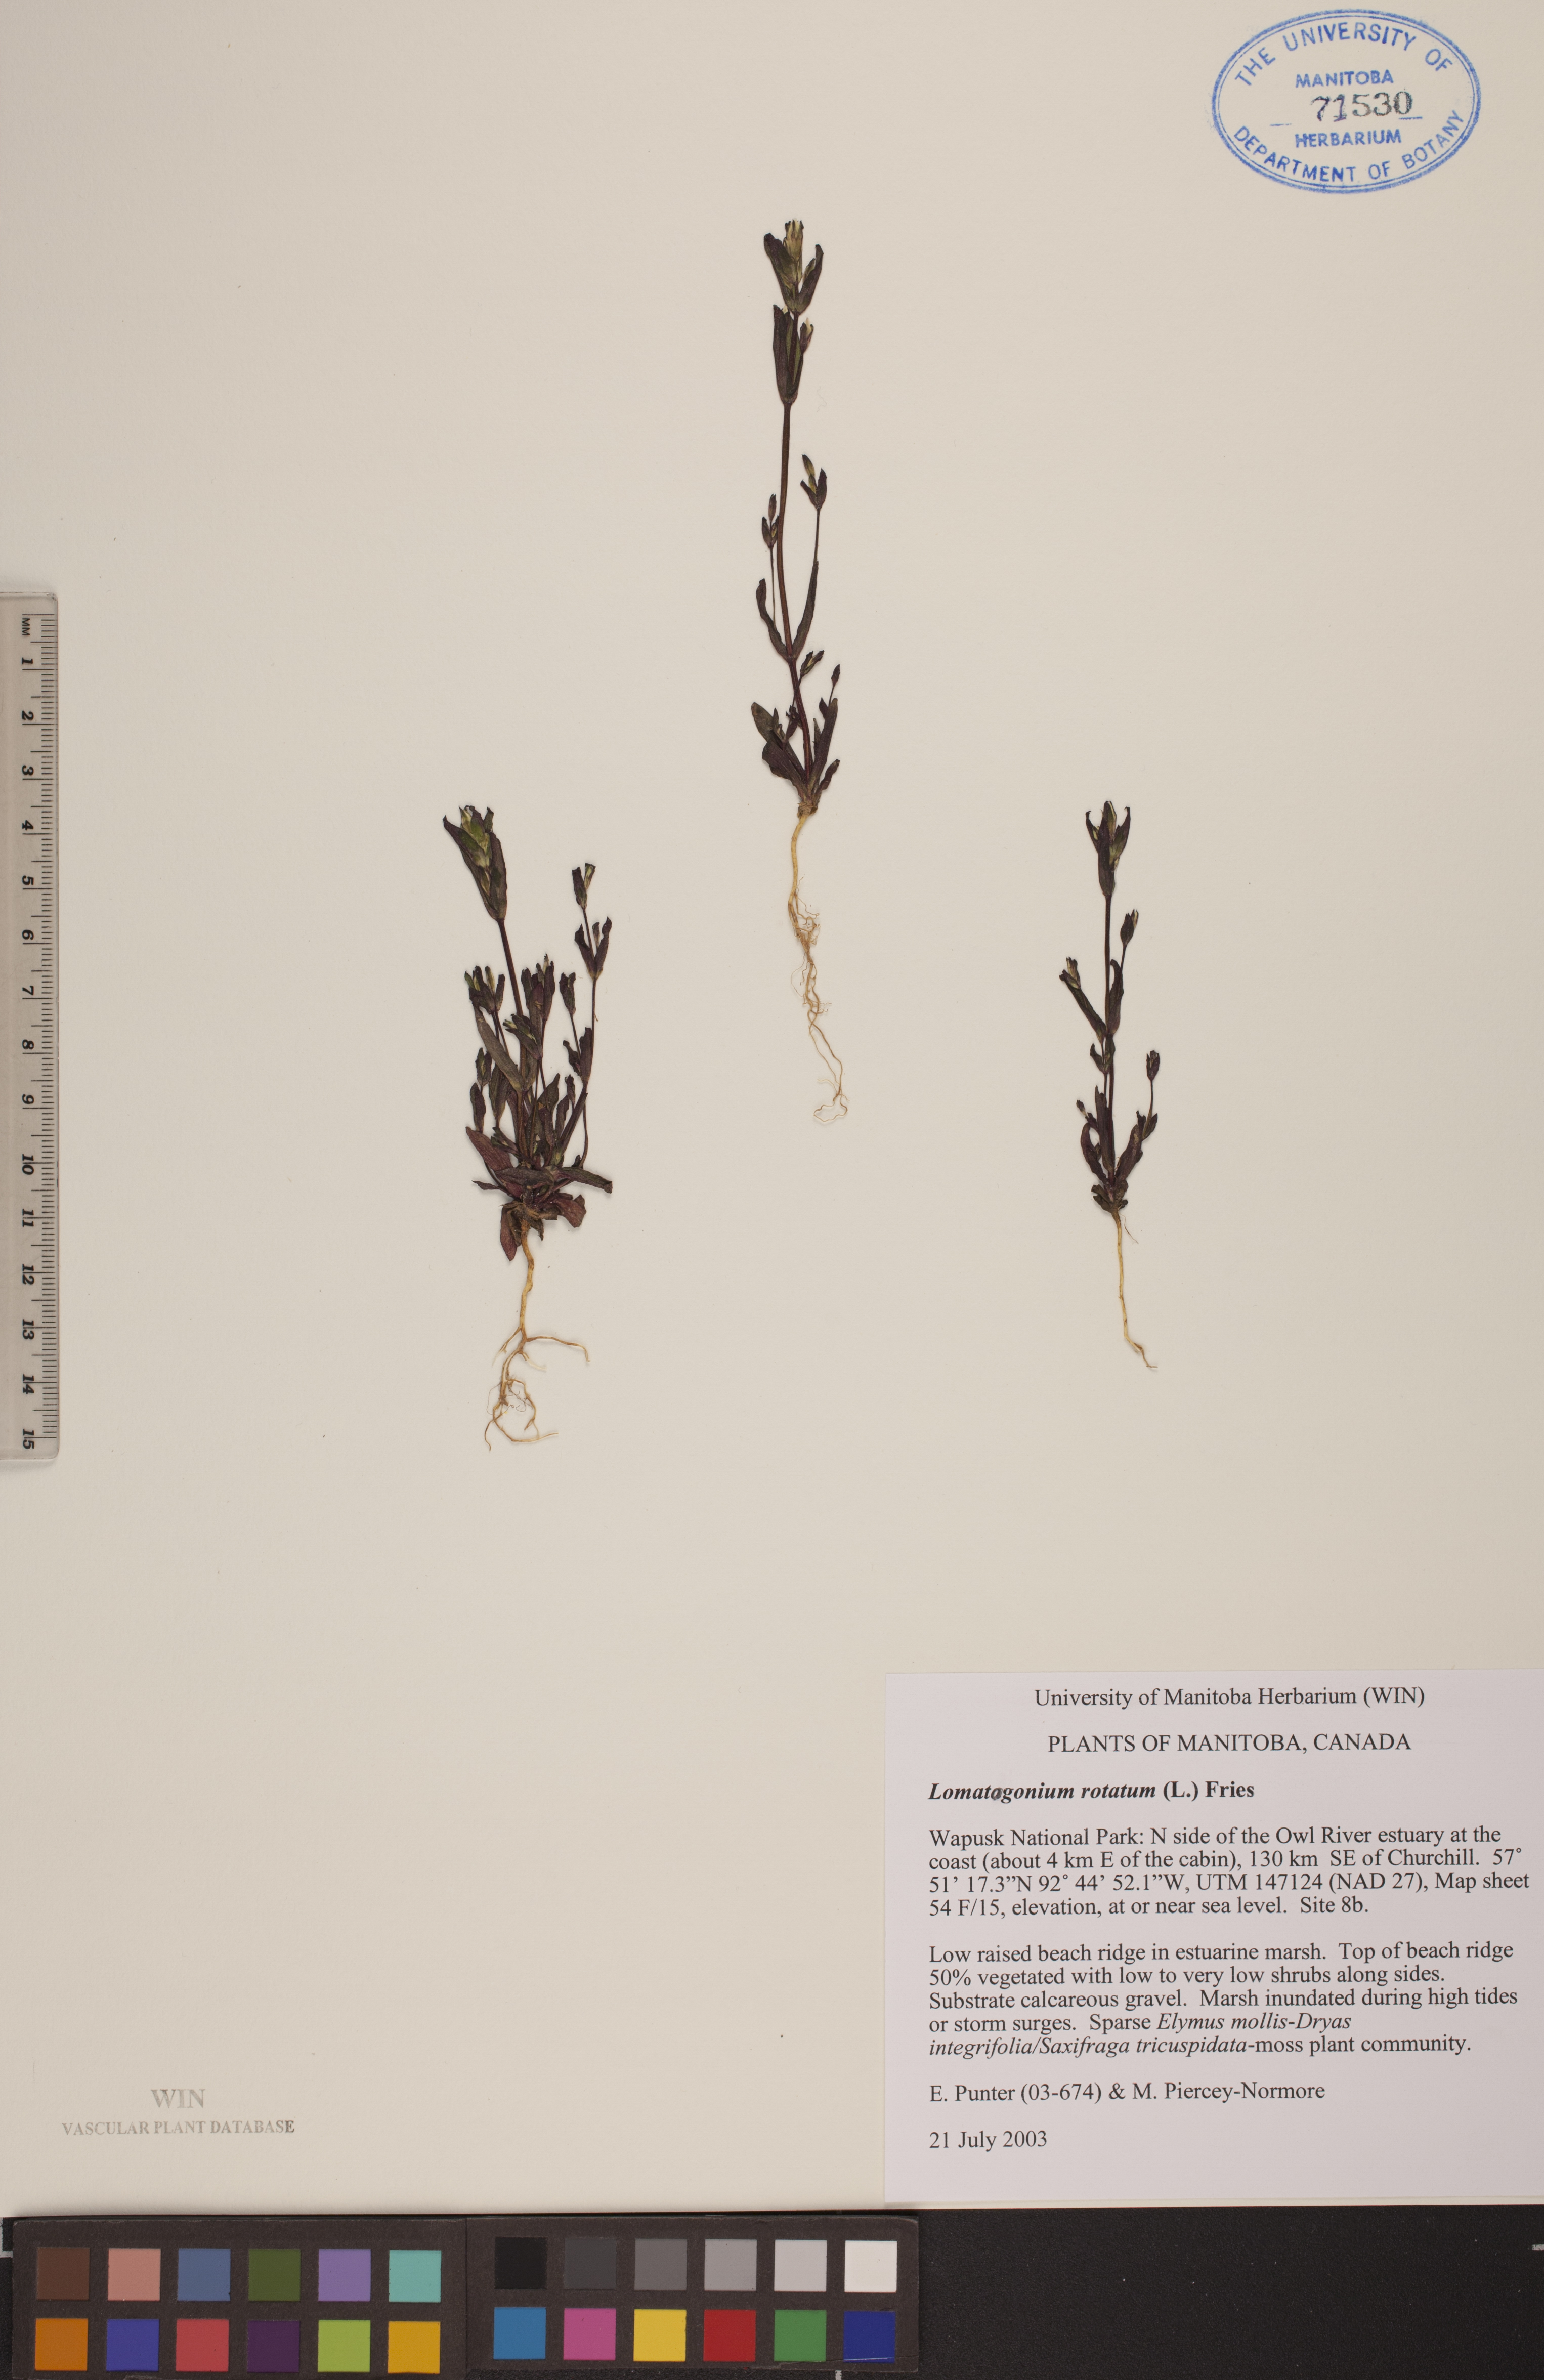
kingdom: Plantae
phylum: Tracheophyta
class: Magnoliopsida
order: Gentianales
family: Gentianaceae
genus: Lomatogonium
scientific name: Lomatogonium rotatum
